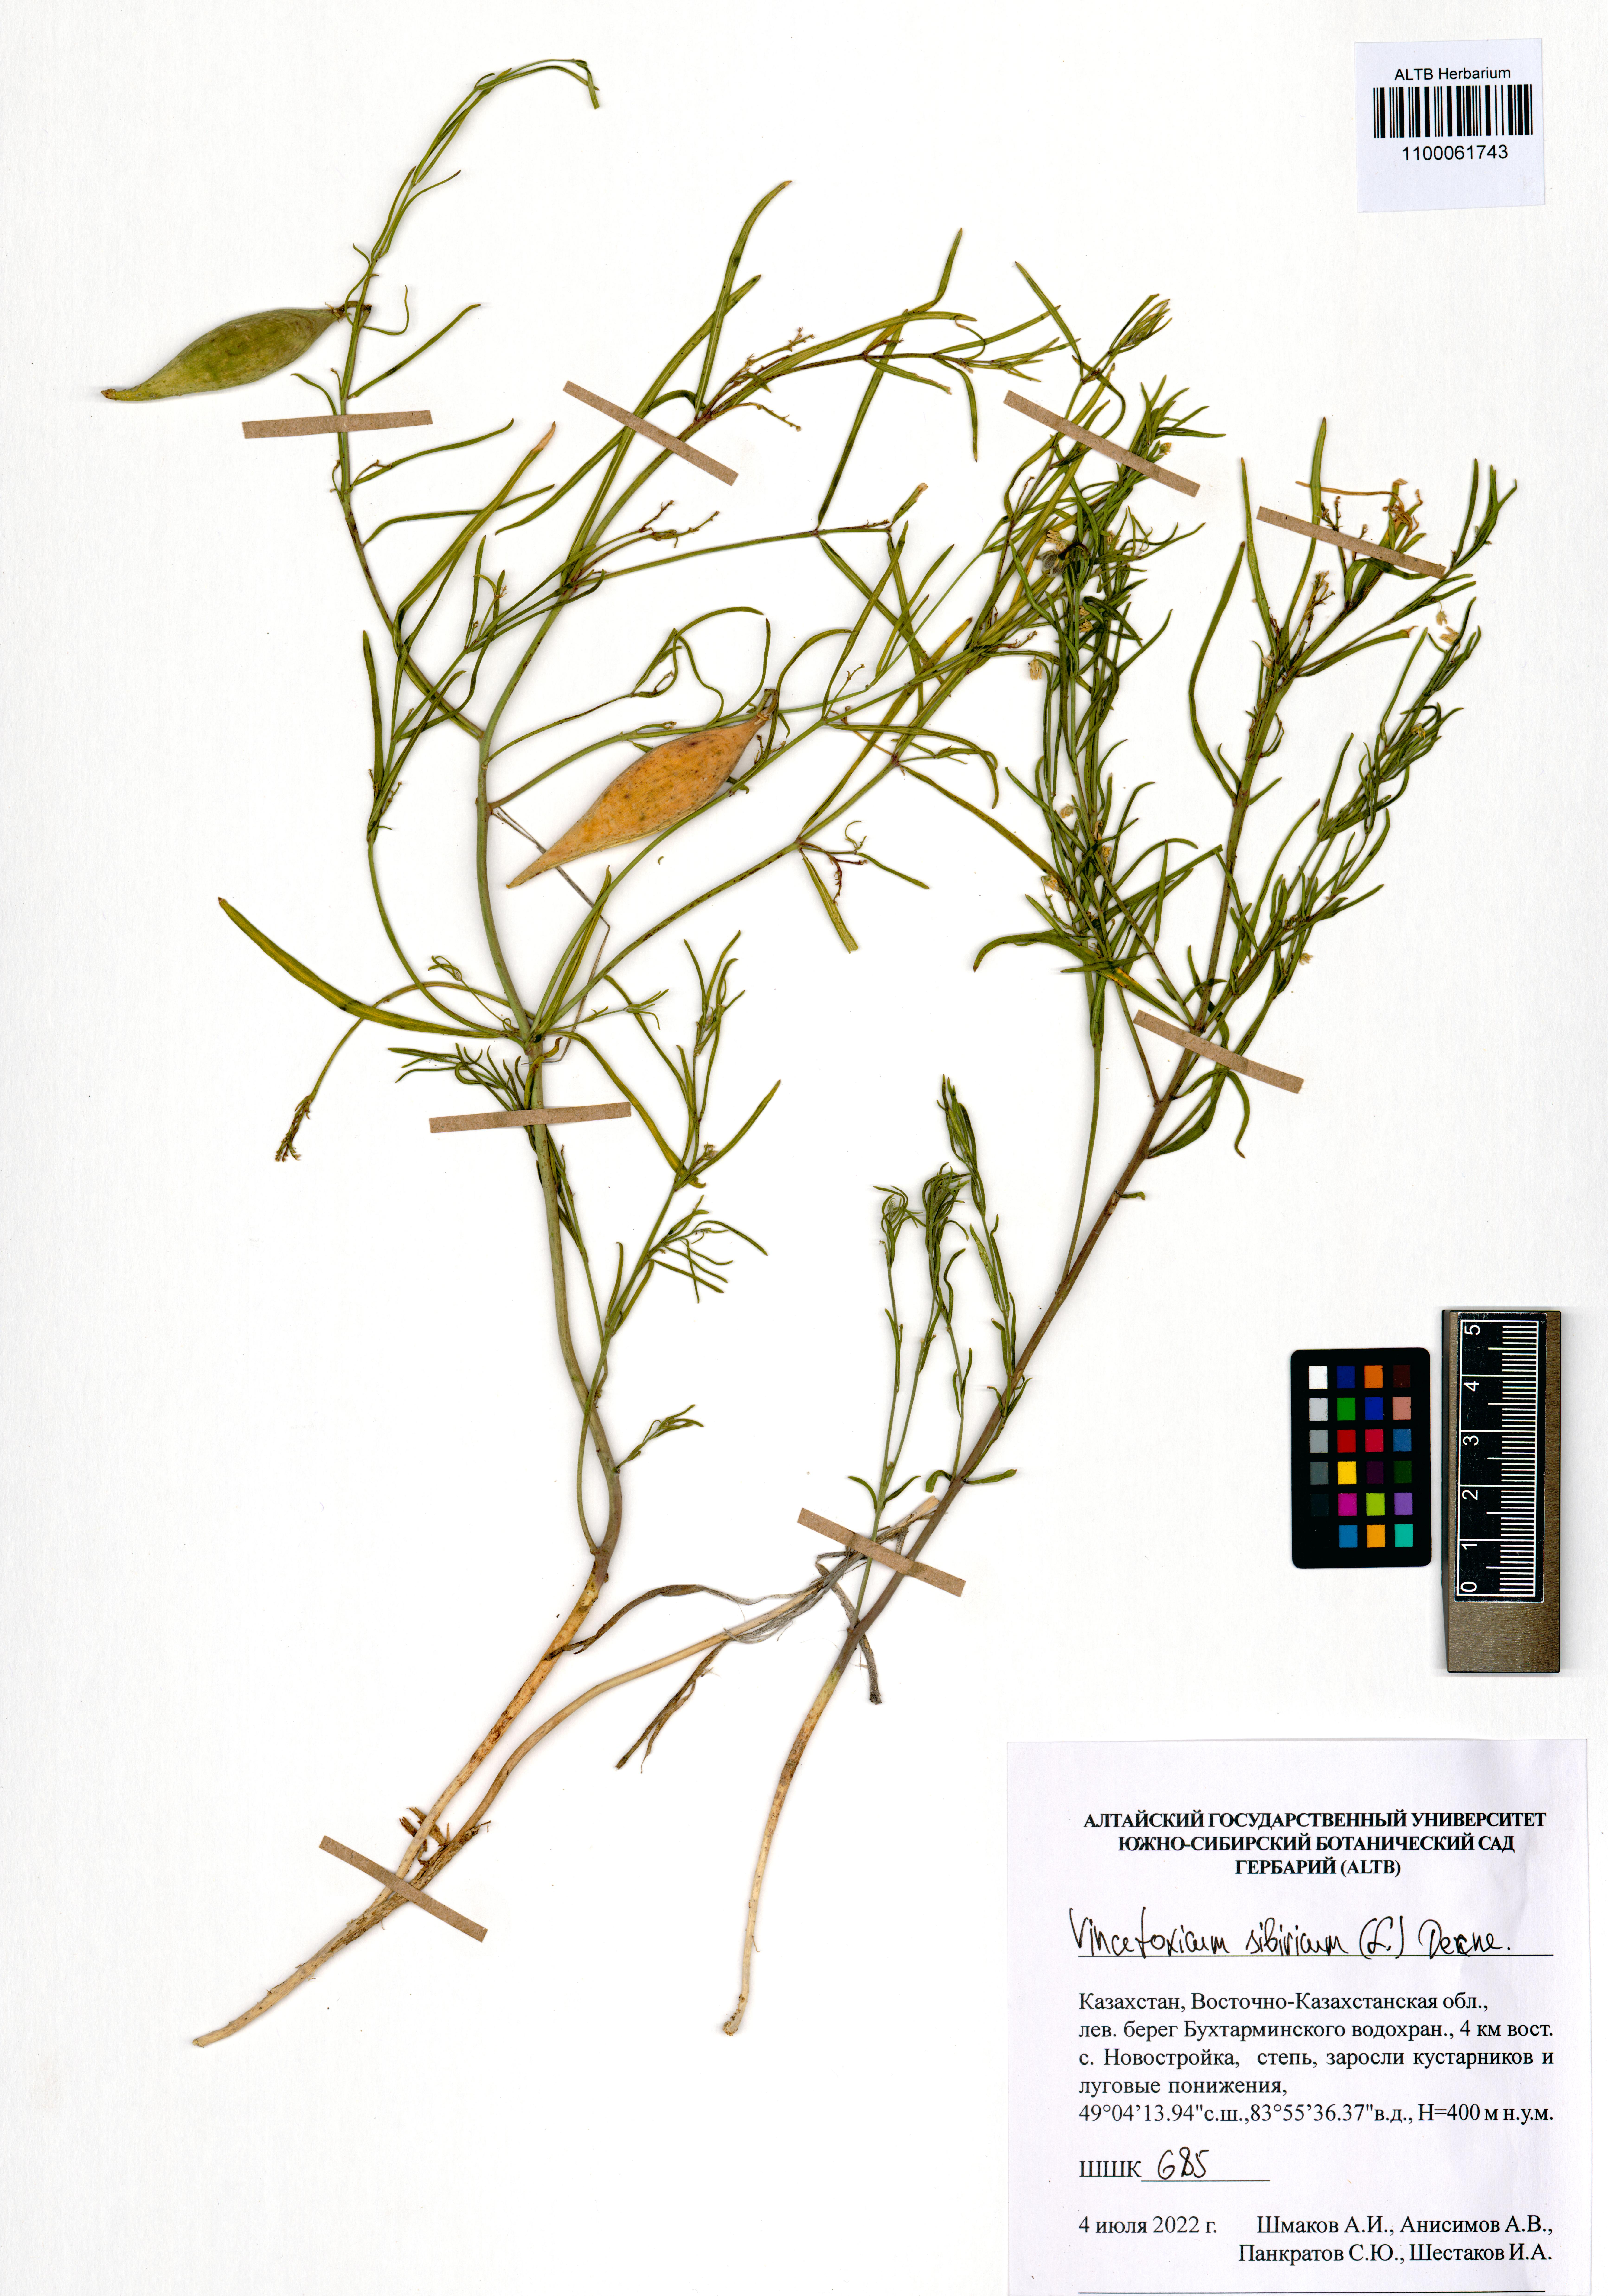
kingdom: Plantae
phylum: Tracheophyta
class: Magnoliopsida
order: Gentianales
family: Apocynaceae
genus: Cynanchum
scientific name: Cynanchum thesioides
